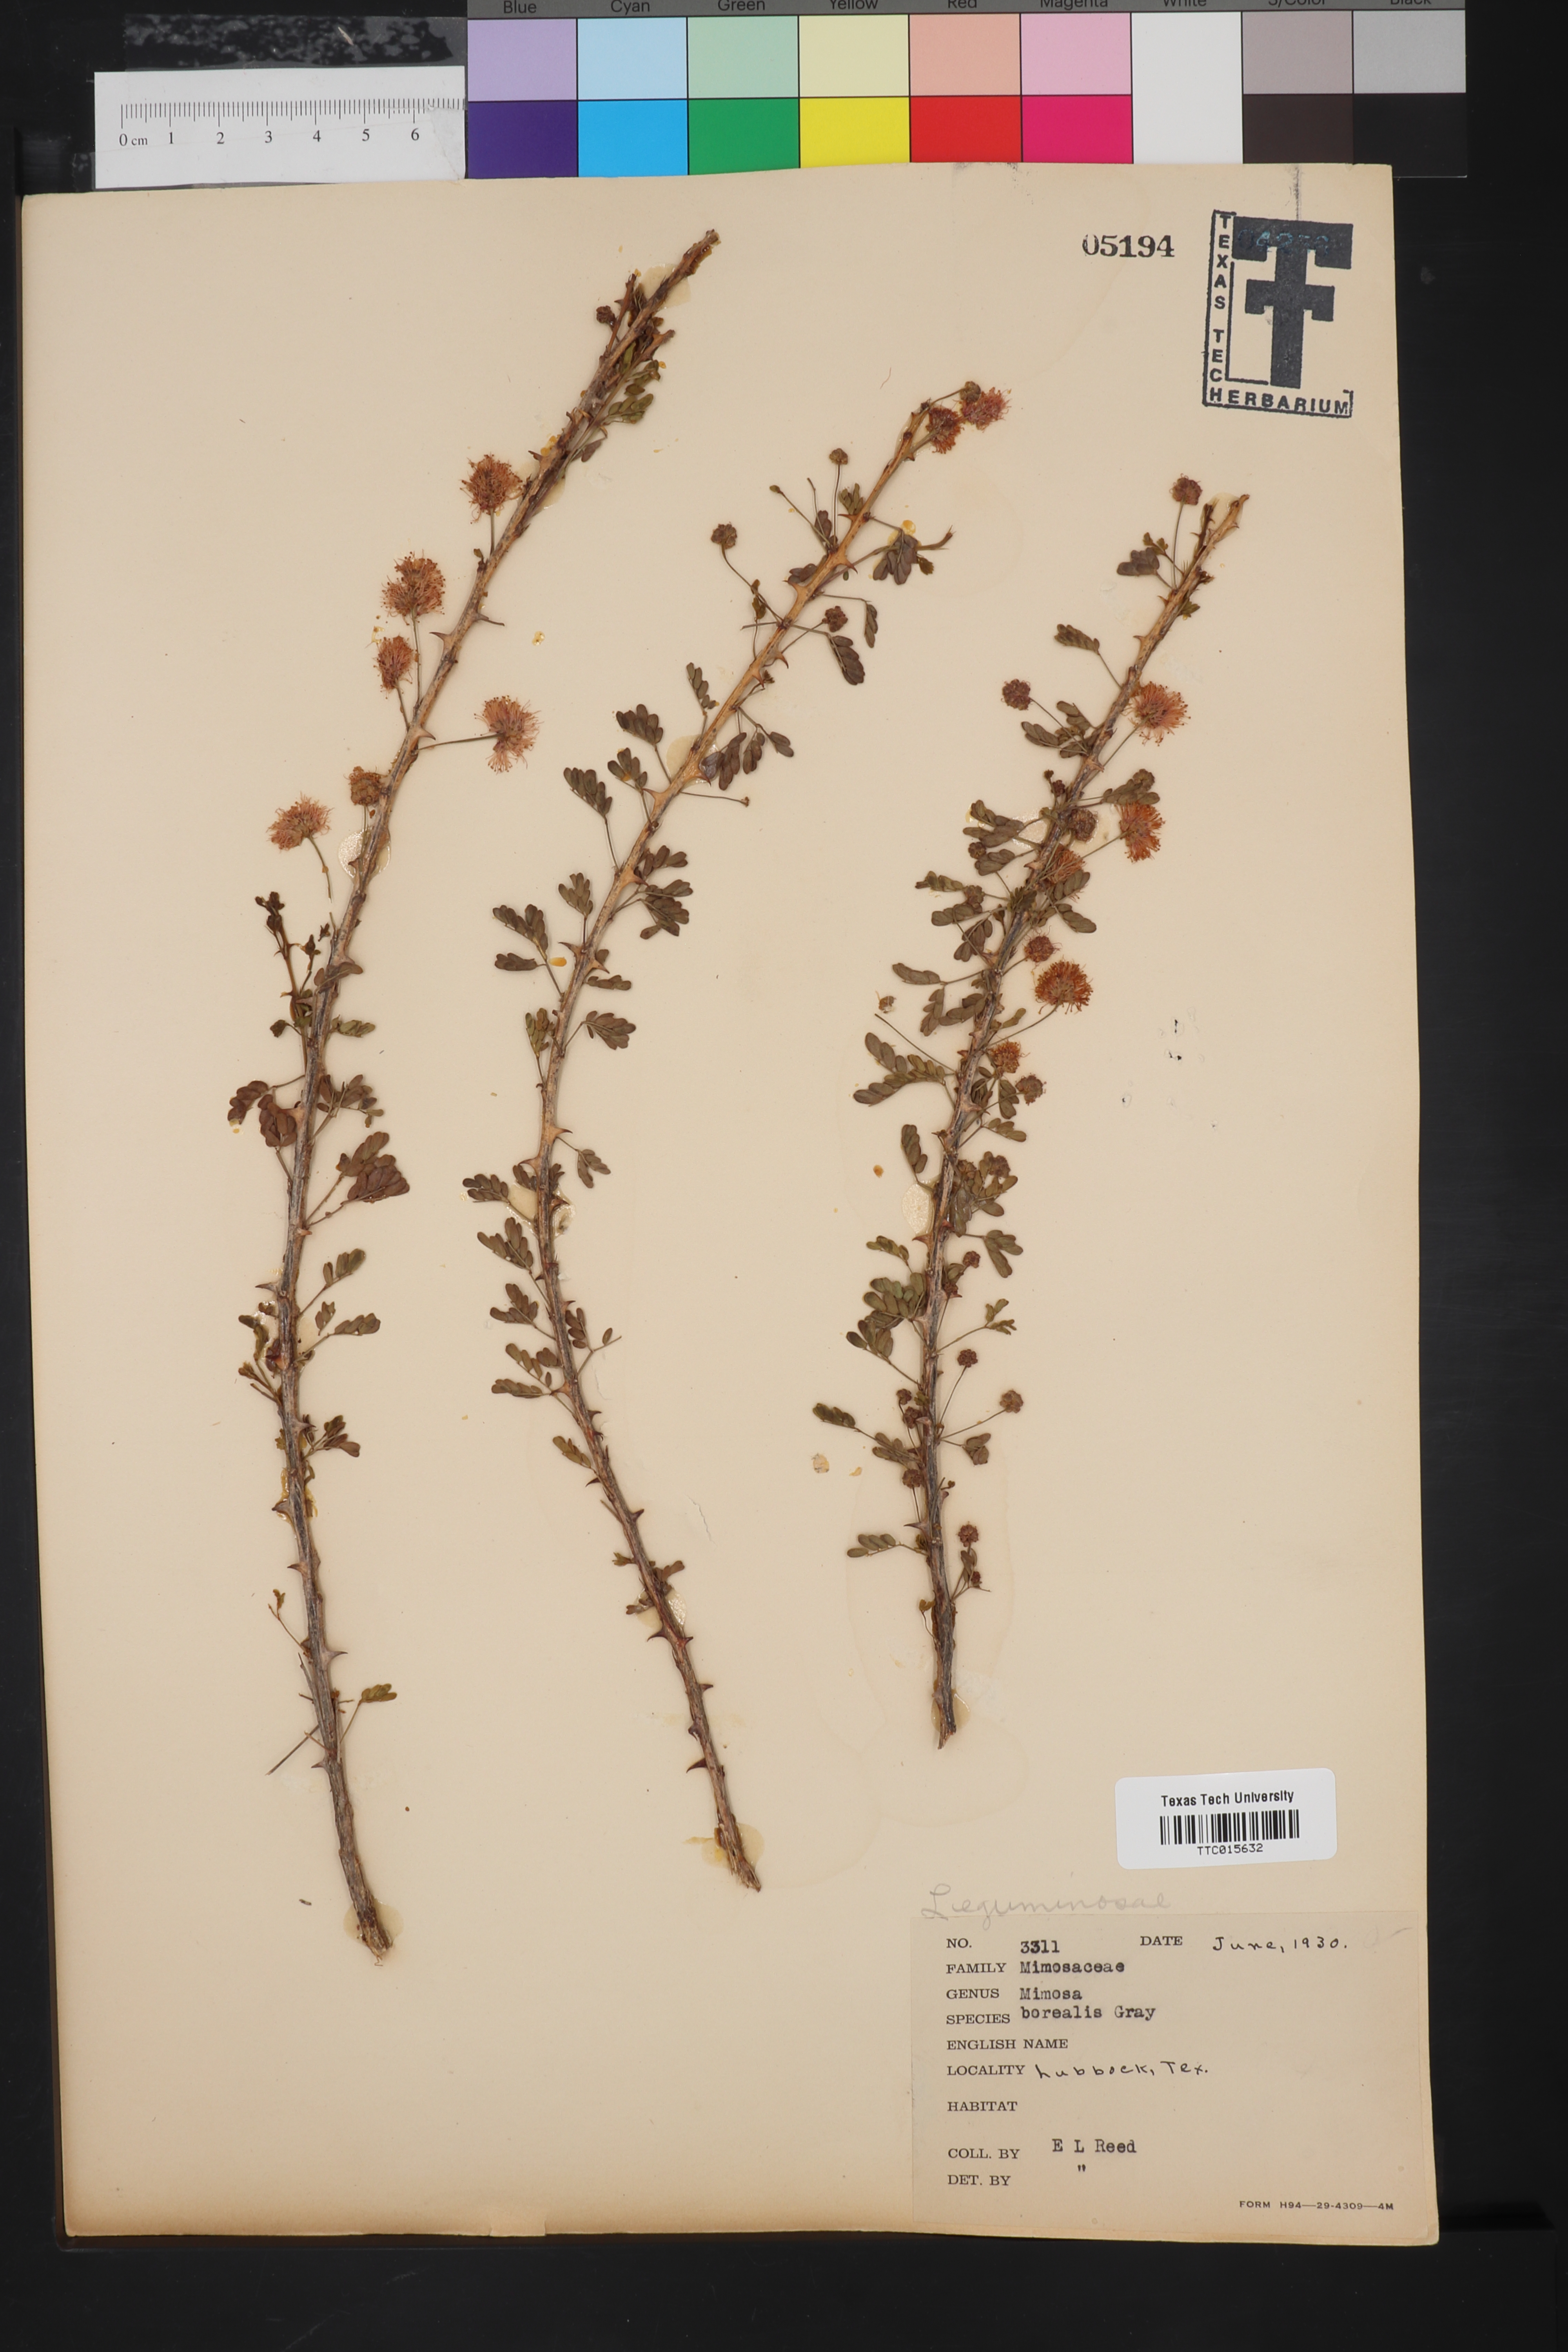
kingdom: Plantae
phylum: Tracheophyta
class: Magnoliopsida
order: Fabales
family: Fabaceae
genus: Mimosa
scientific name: Mimosa borealis
